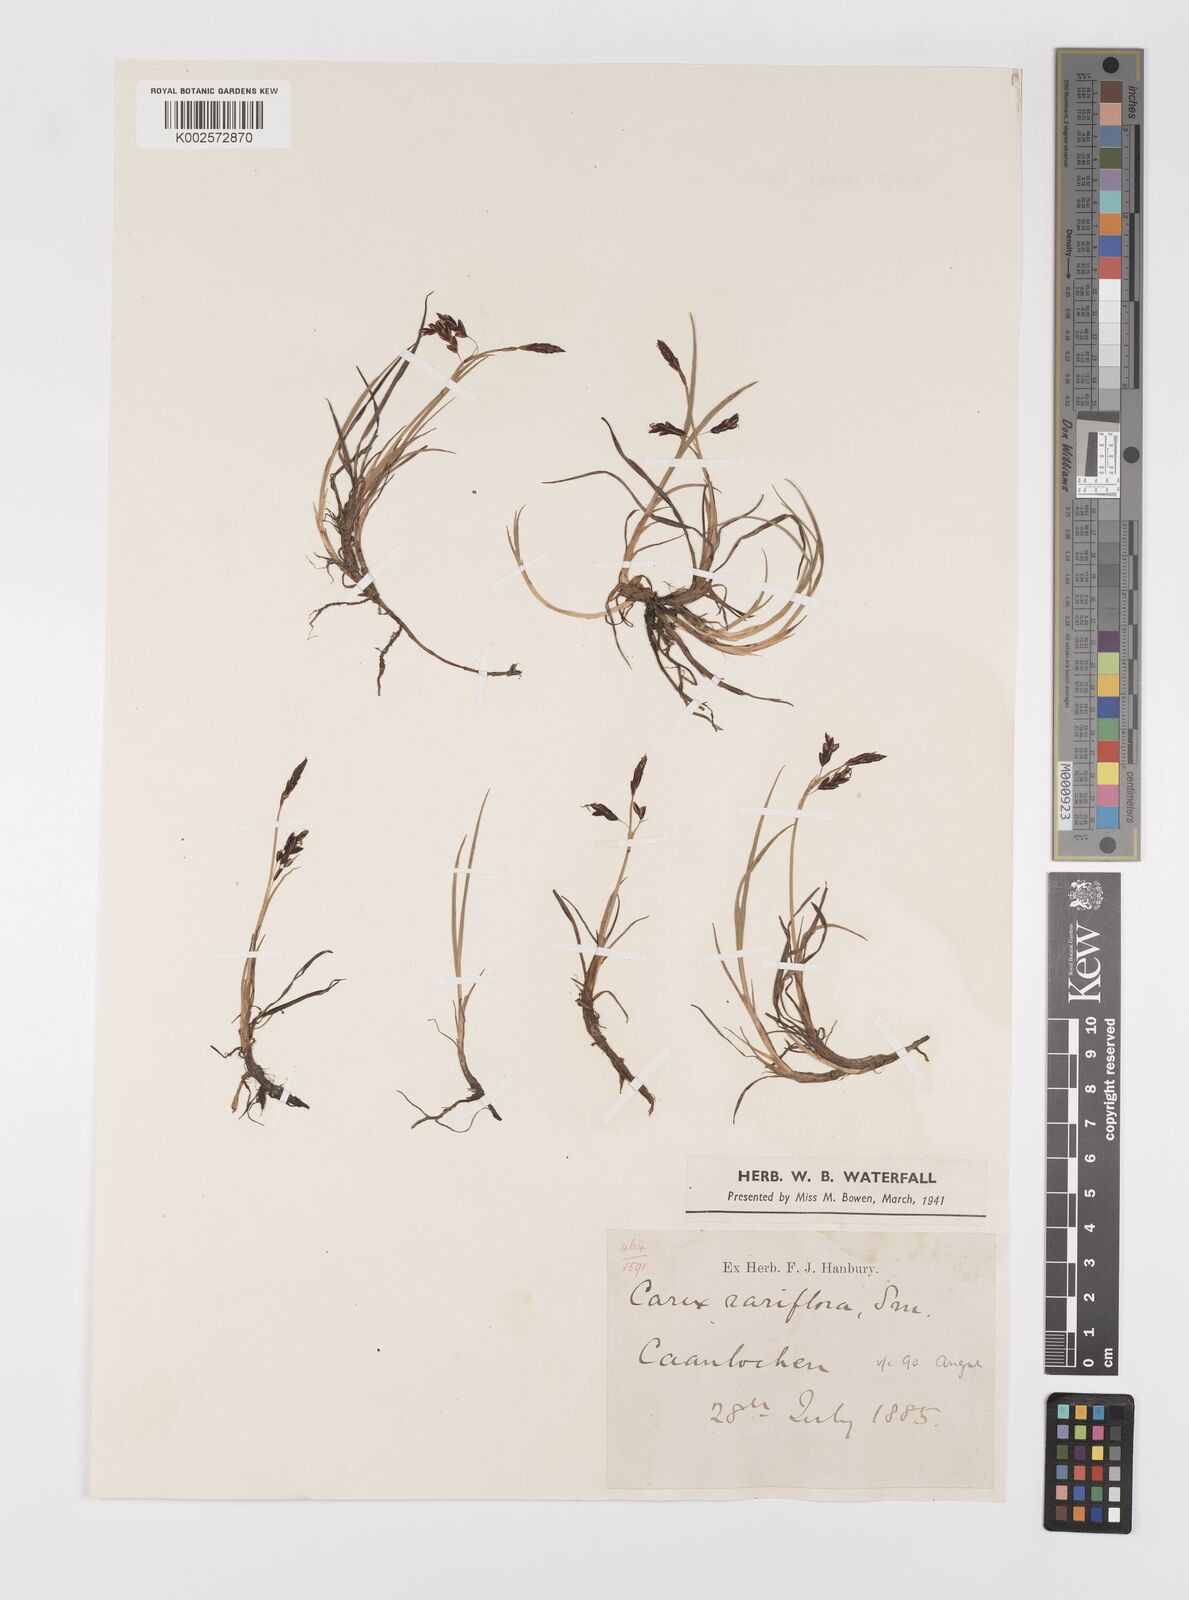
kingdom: Plantae
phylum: Tracheophyta
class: Liliopsida
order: Poales
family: Cyperaceae
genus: Carex
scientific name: Carex rariflora
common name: Loose-flowered alpine sedge
